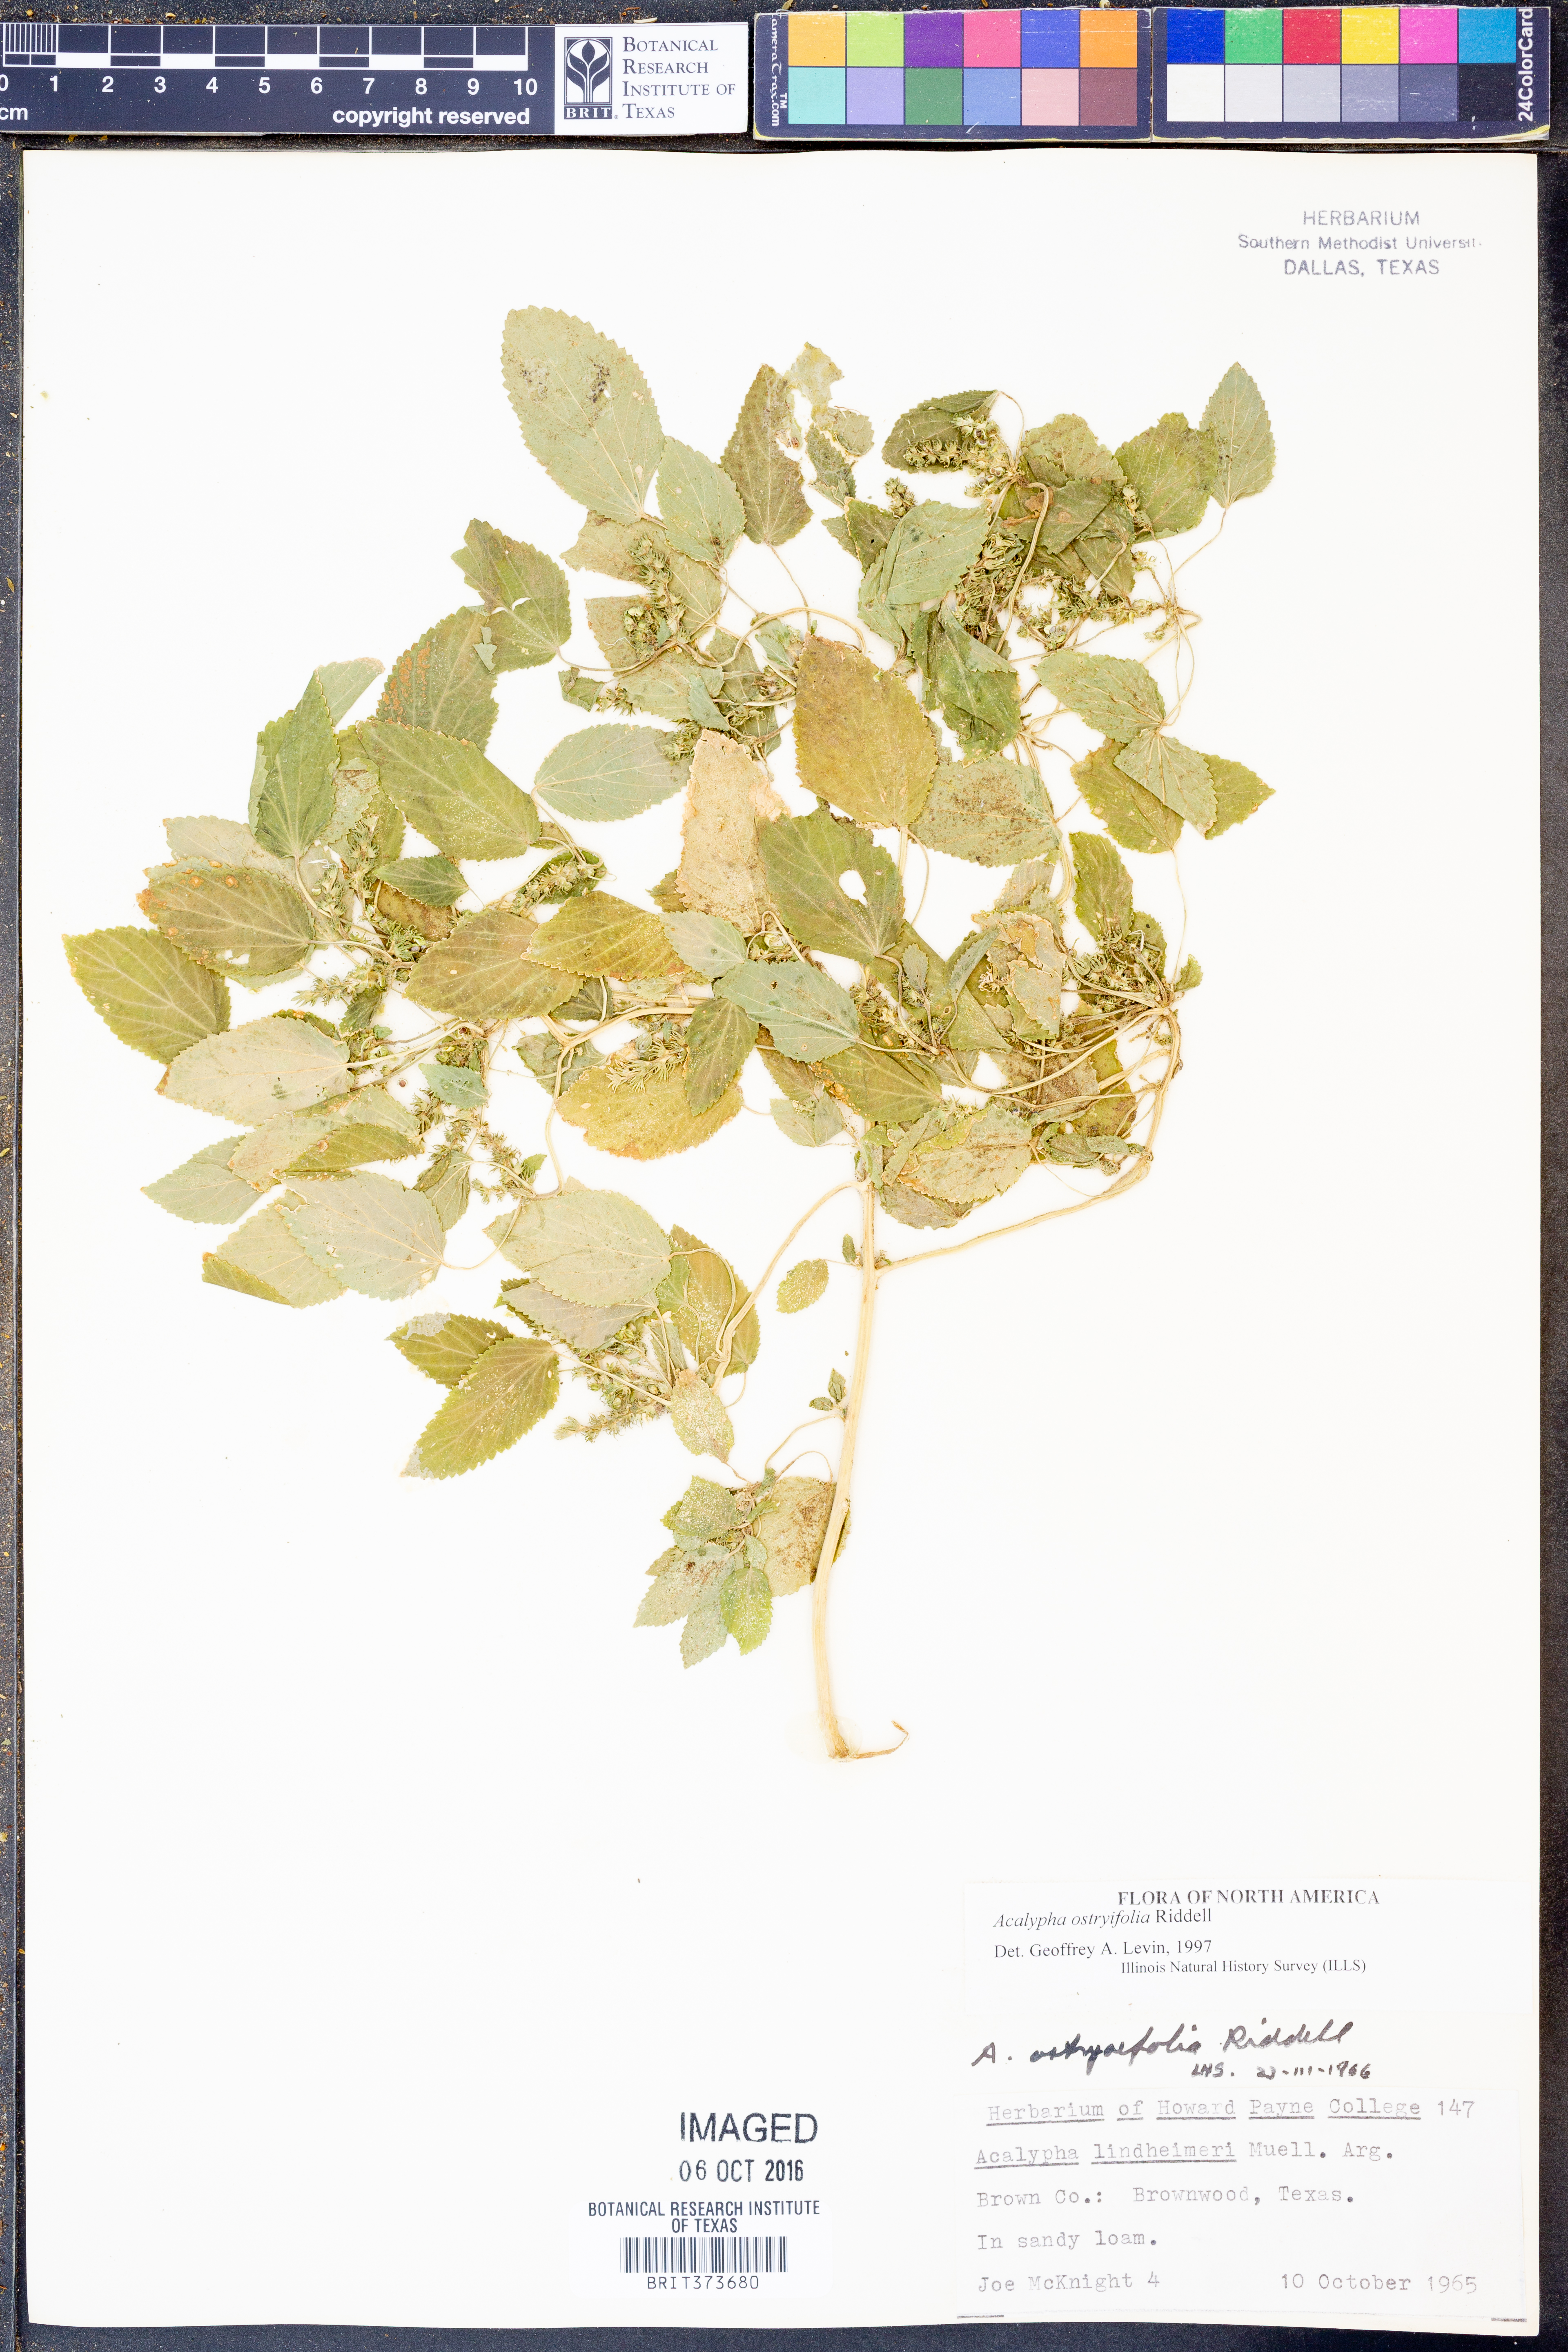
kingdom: Plantae
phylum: Tracheophyta
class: Magnoliopsida
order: Malpighiales
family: Euphorbiaceae
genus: Acalypha
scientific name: Acalypha persimilis
